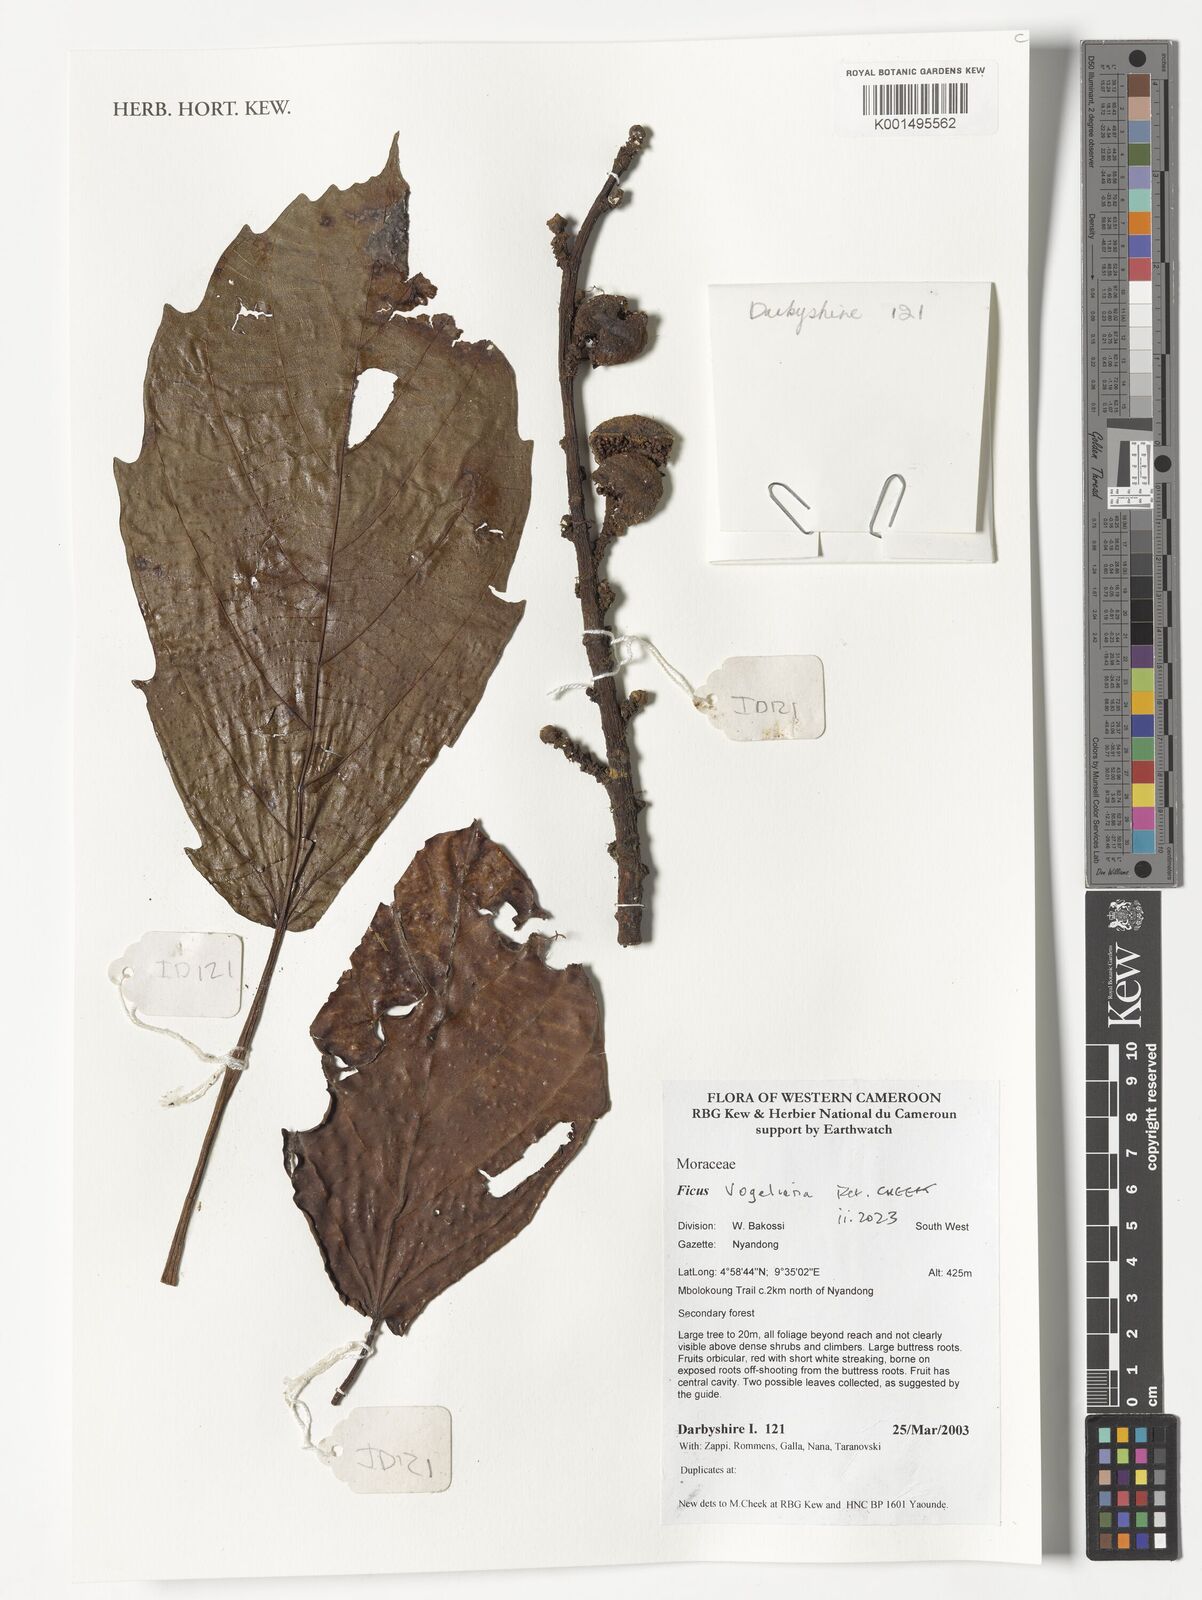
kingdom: Plantae
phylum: Tracheophyta
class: Magnoliopsida
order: Rosales
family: Moraceae
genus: Ficus
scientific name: Ficus vogeliana
